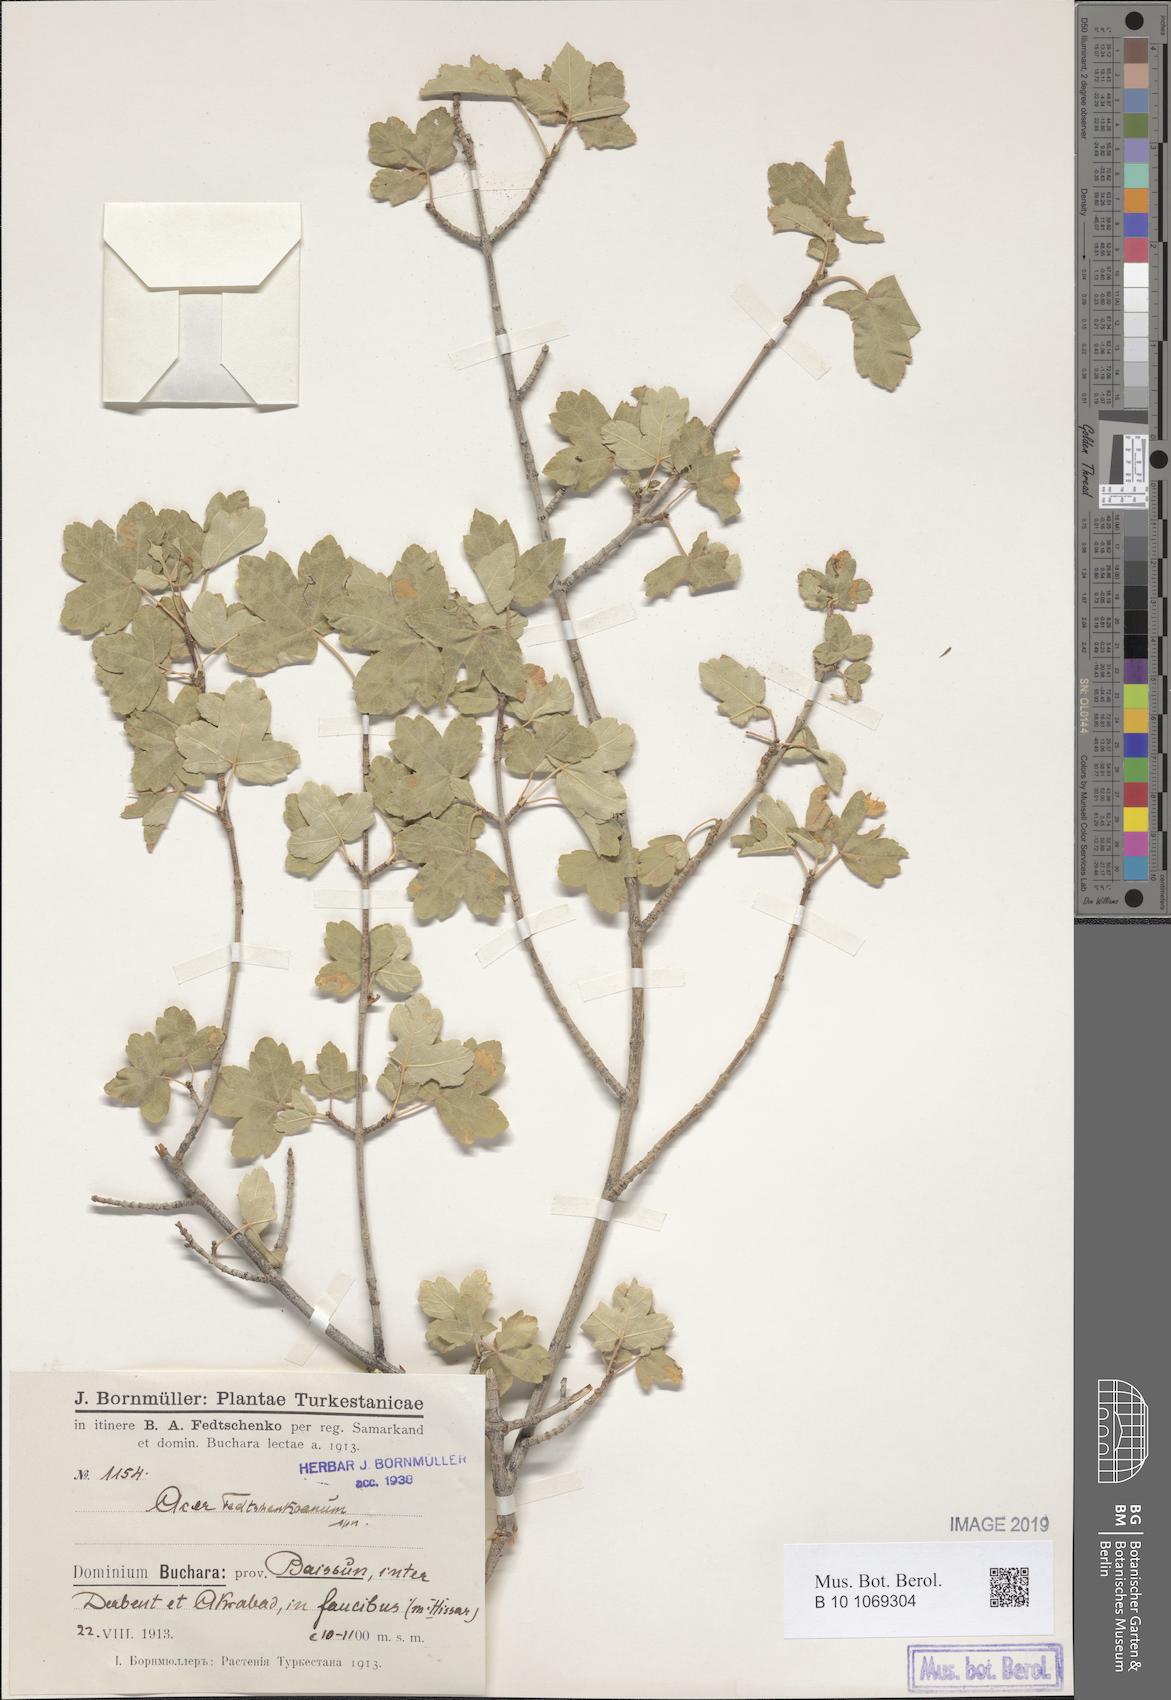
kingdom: Plantae
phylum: Tracheophyta
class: Magnoliopsida
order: Sapindales
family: Sapindaceae
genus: Acer
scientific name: Acer pentapomicum
